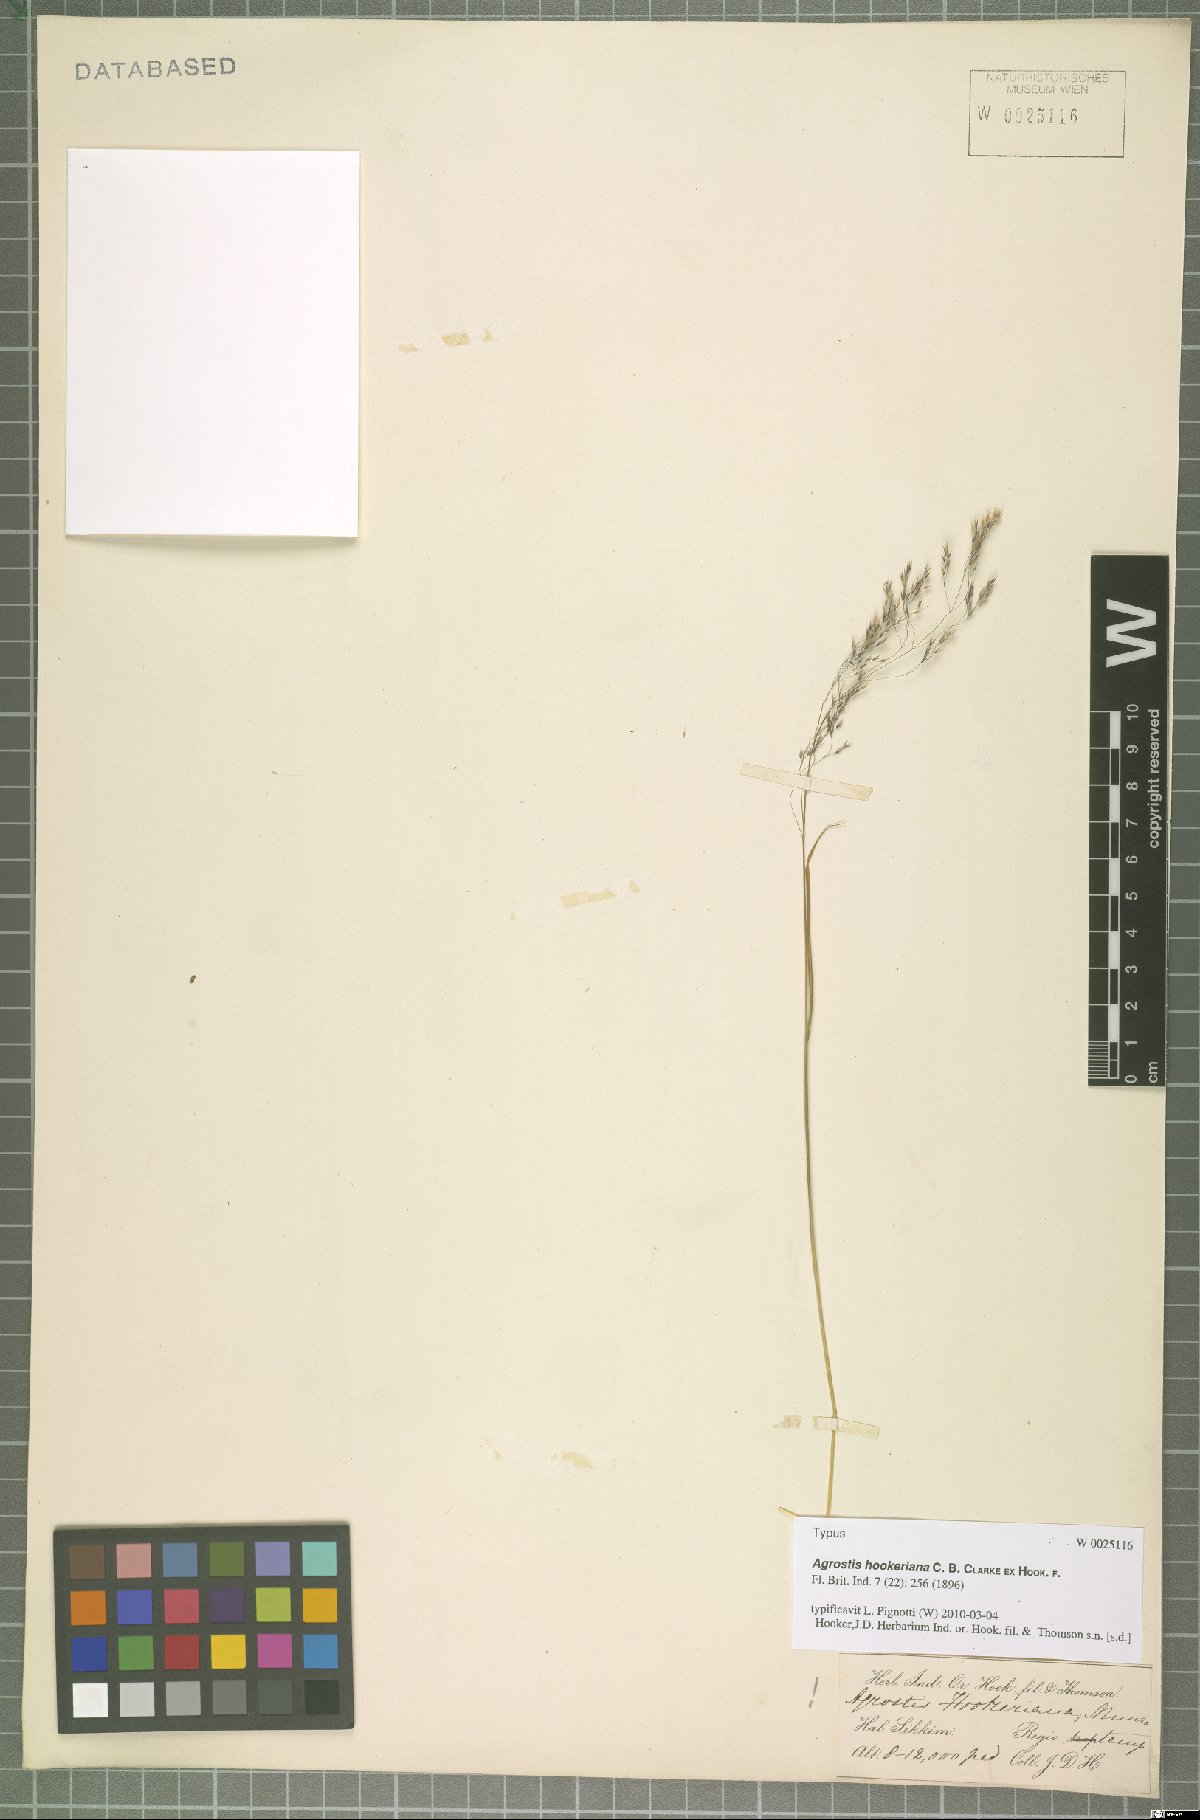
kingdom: Plantae
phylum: Tracheophyta
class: Liliopsida
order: Poales
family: Poaceae
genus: Agrostis
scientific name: Agrostis hookeriana
